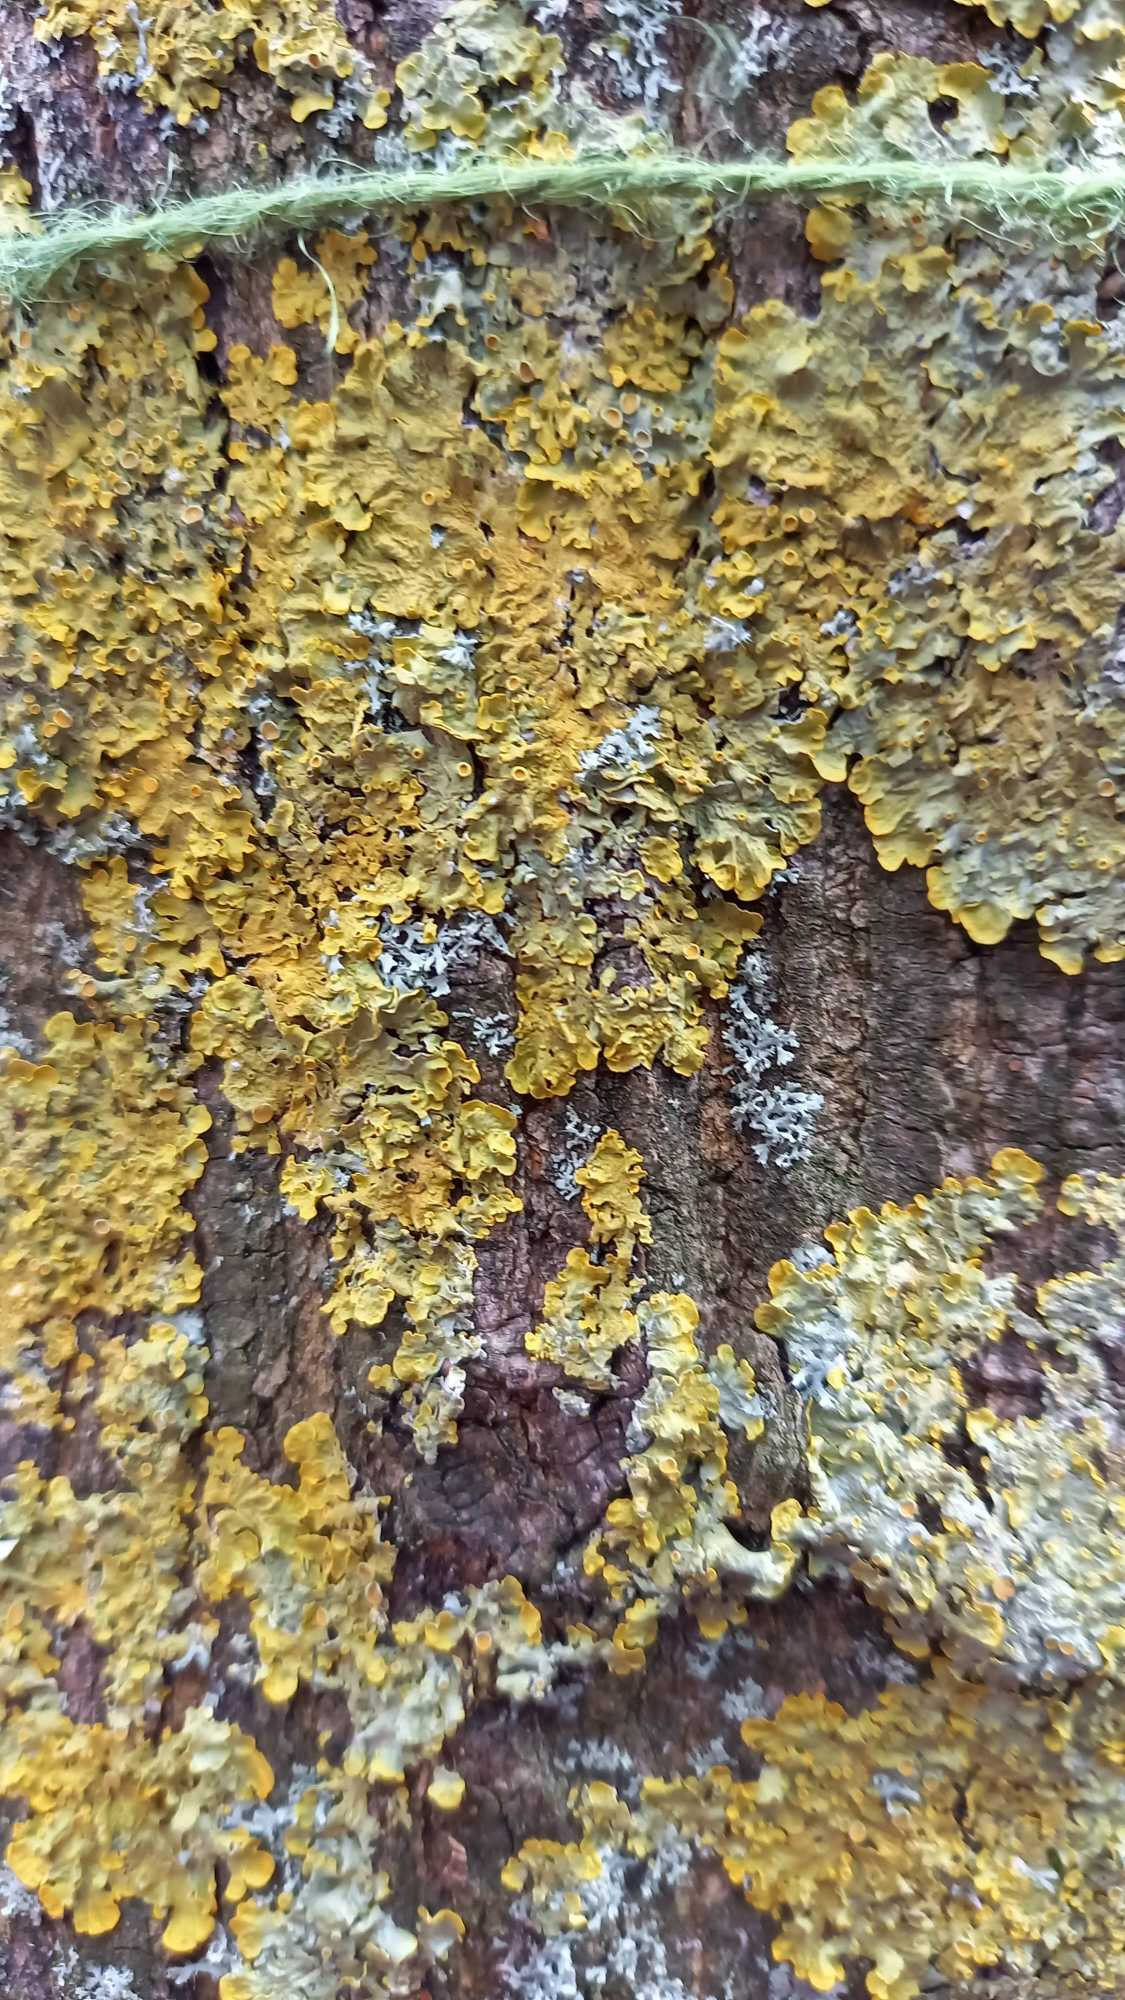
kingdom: Fungi
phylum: Ascomycota
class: Lecanoromycetes
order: Teloschistales
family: Teloschistaceae
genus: Xanthoria
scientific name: Xanthoria parietina
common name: Almindelig væggelav
